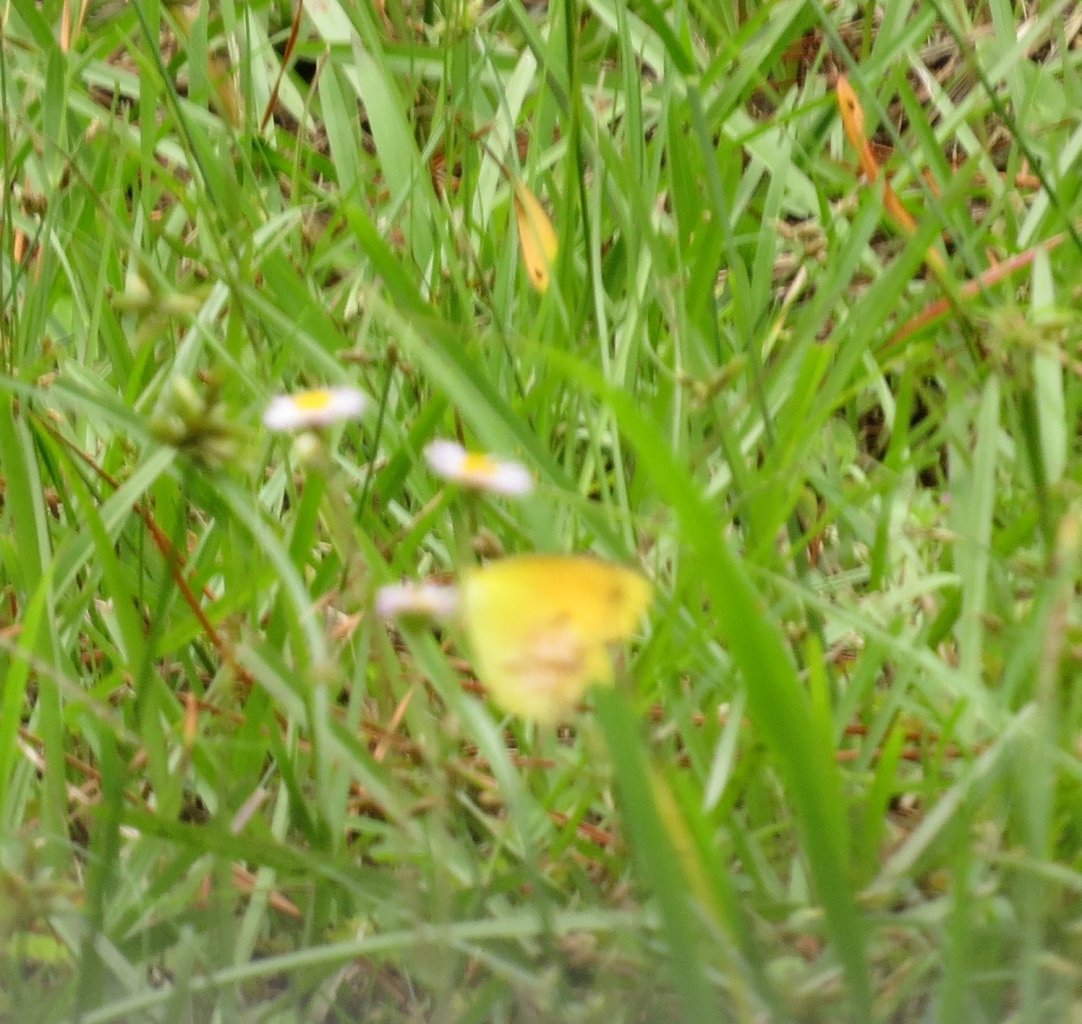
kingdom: Animalia
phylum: Arthropoda
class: Insecta
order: Lepidoptera
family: Pieridae
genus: Abaeis
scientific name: Abaeis nicippe
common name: Sleepy Orange
